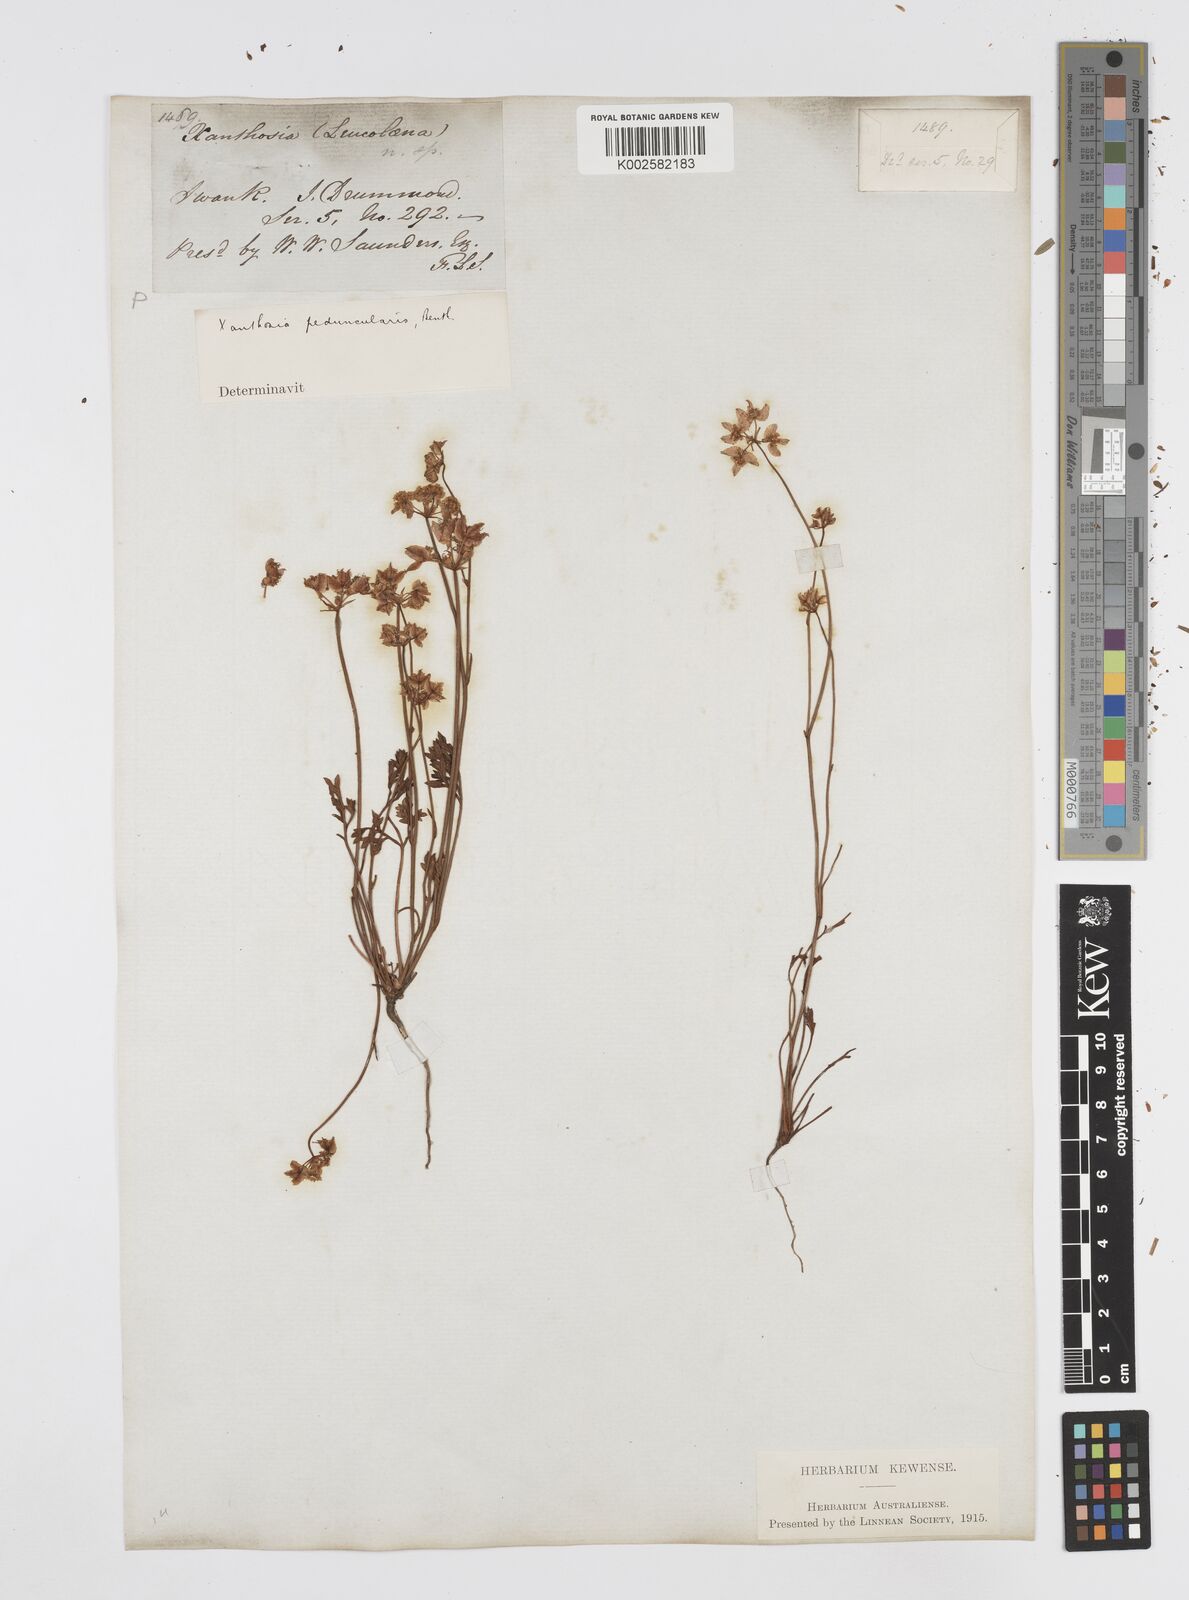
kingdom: Plantae
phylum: Tracheophyta
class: Magnoliopsida
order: Apiales
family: Apiaceae
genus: Xanthosia
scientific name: Xanthosia peduncularis
